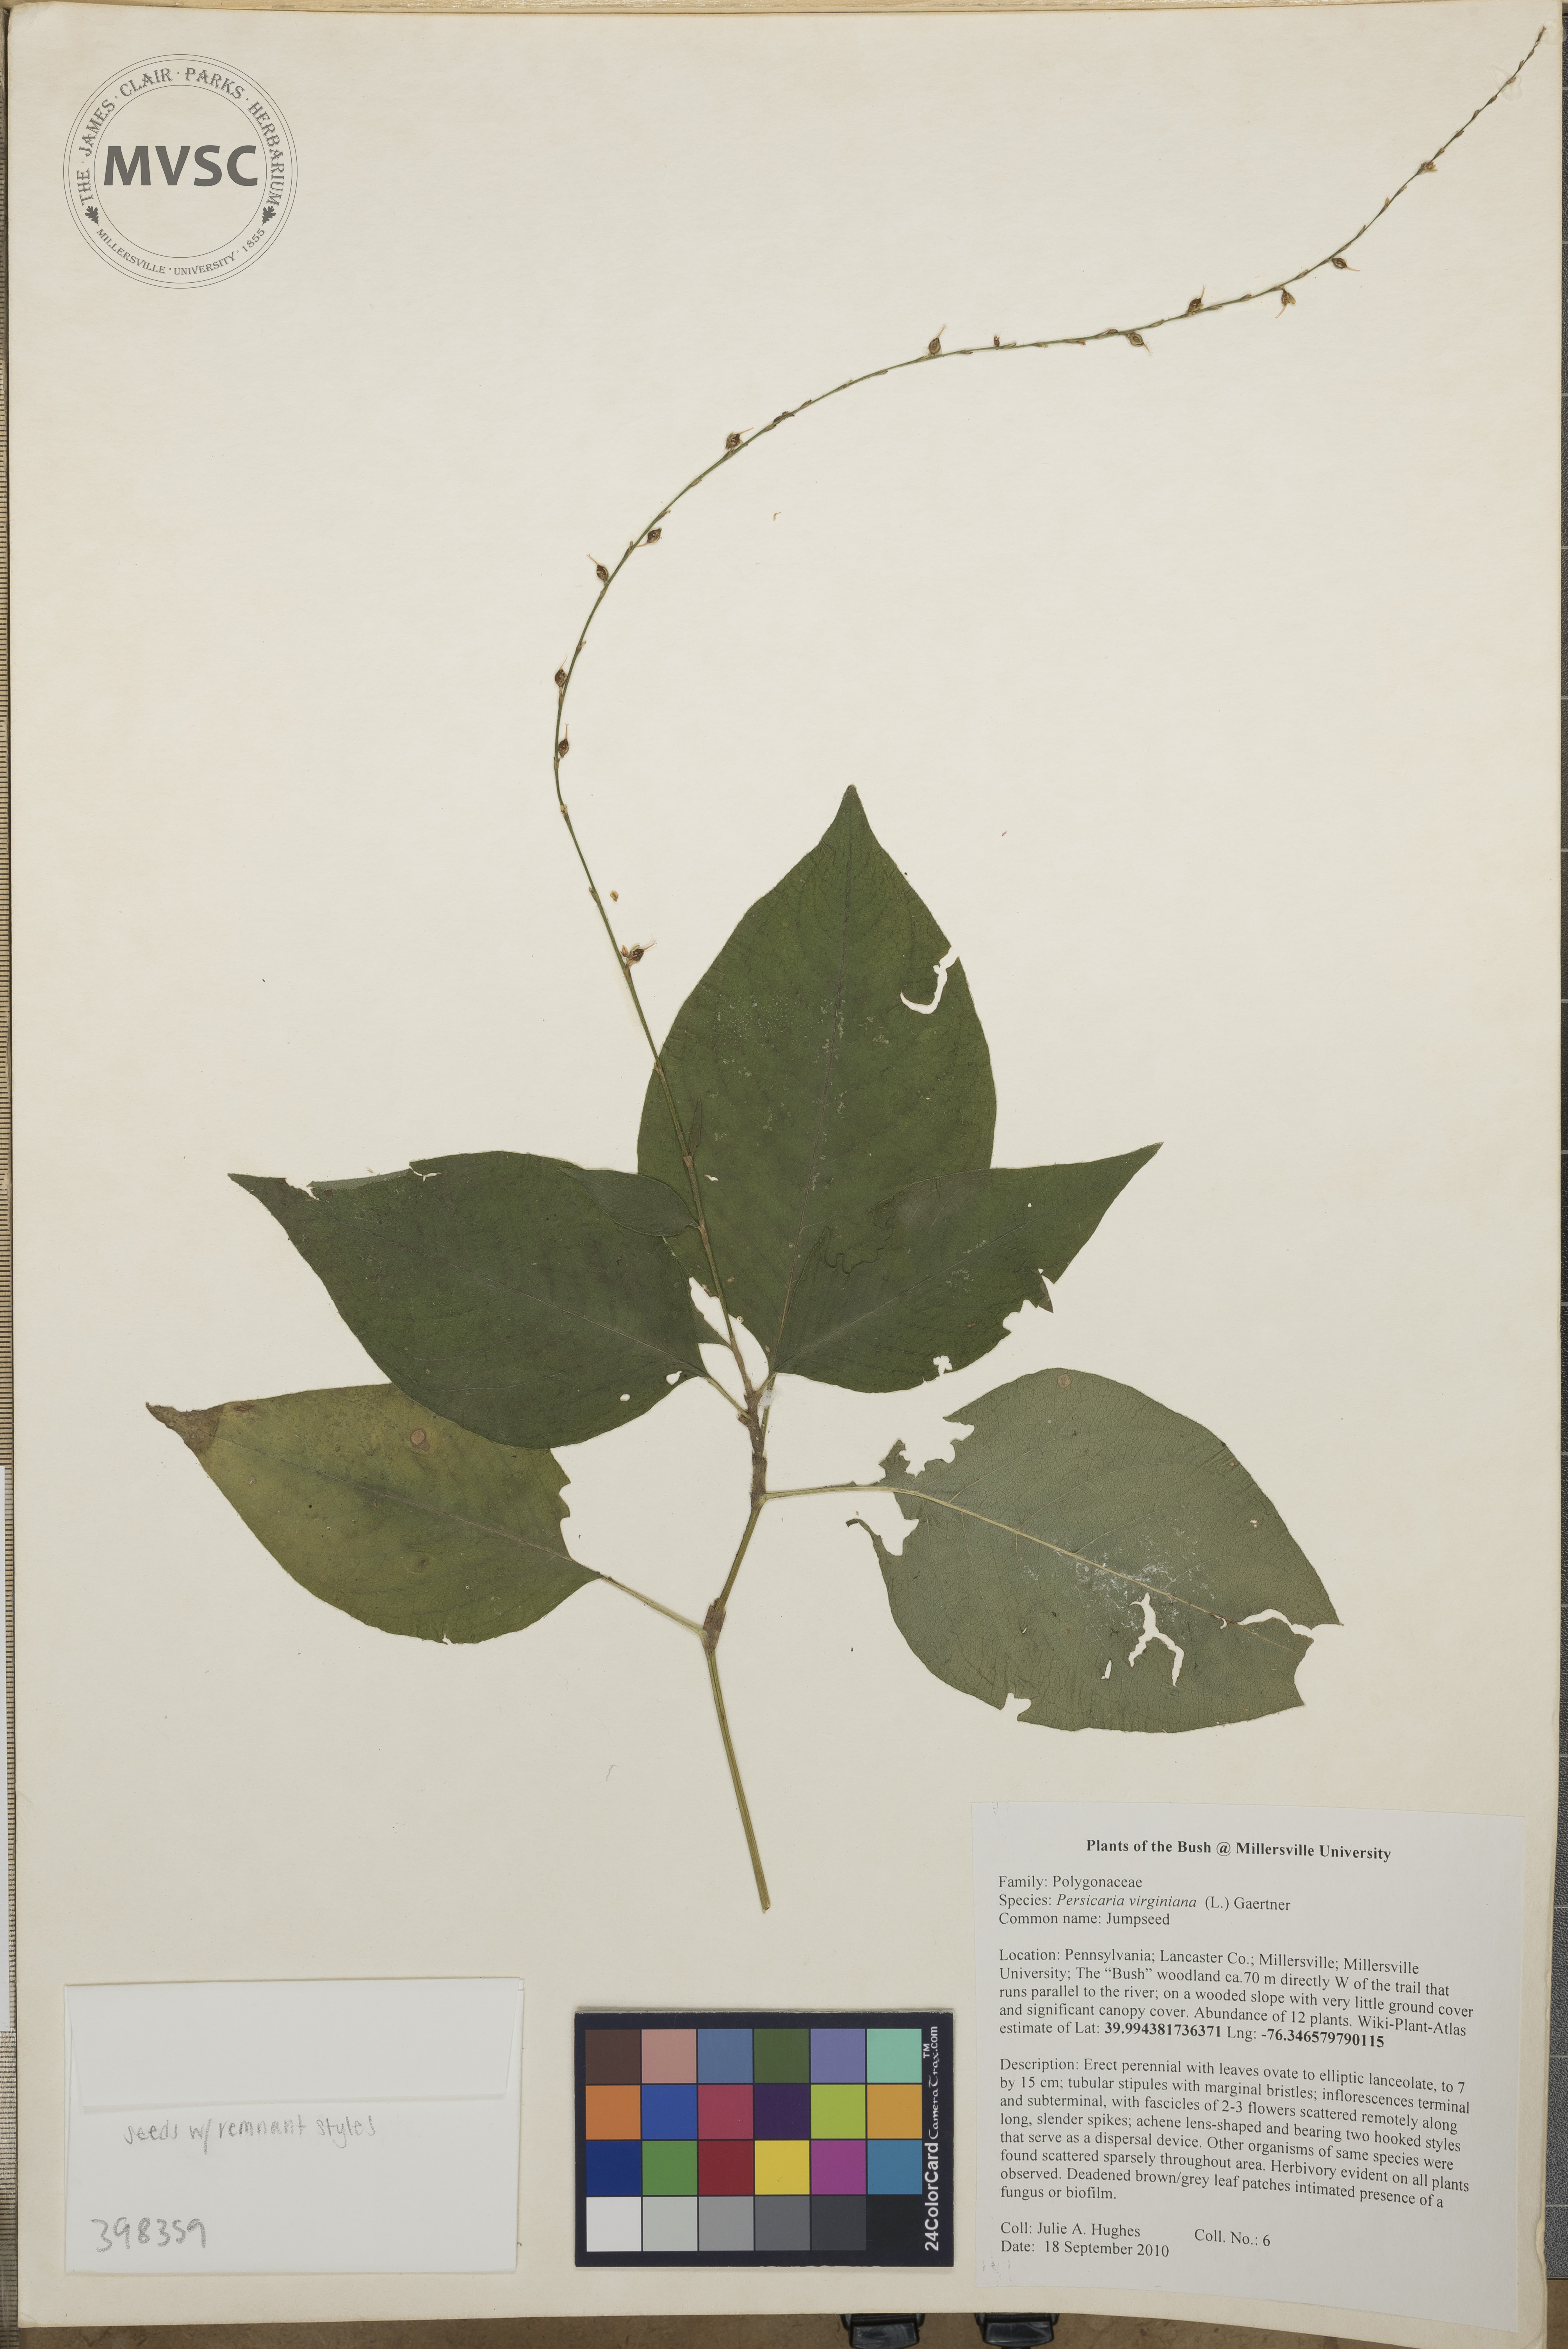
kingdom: Plantae
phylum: Tracheophyta
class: Magnoliopsida
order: Caryophyllales
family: Polygonaceae
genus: Persicaria
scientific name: Persicaria virginiana
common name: Jumpseed
